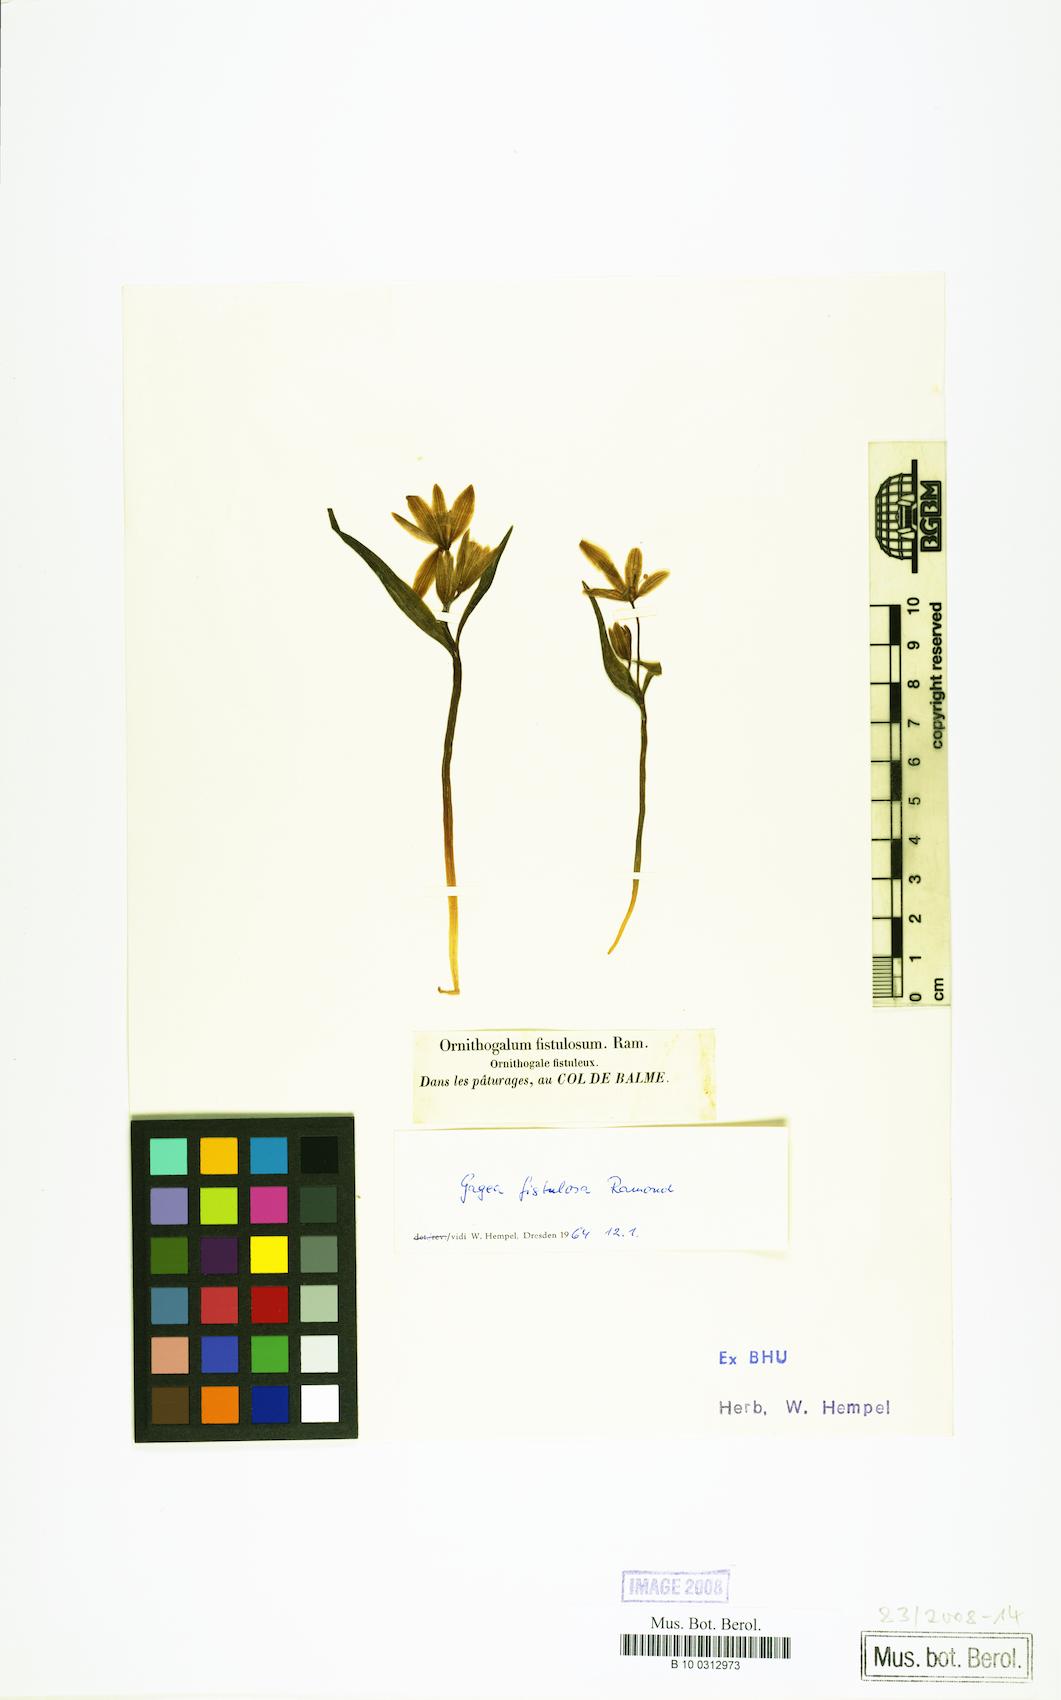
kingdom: Plantae
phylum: Tracheophyta
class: Liliopsida
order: Liliales
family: Liliaceae
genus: Gagea
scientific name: Gagea
